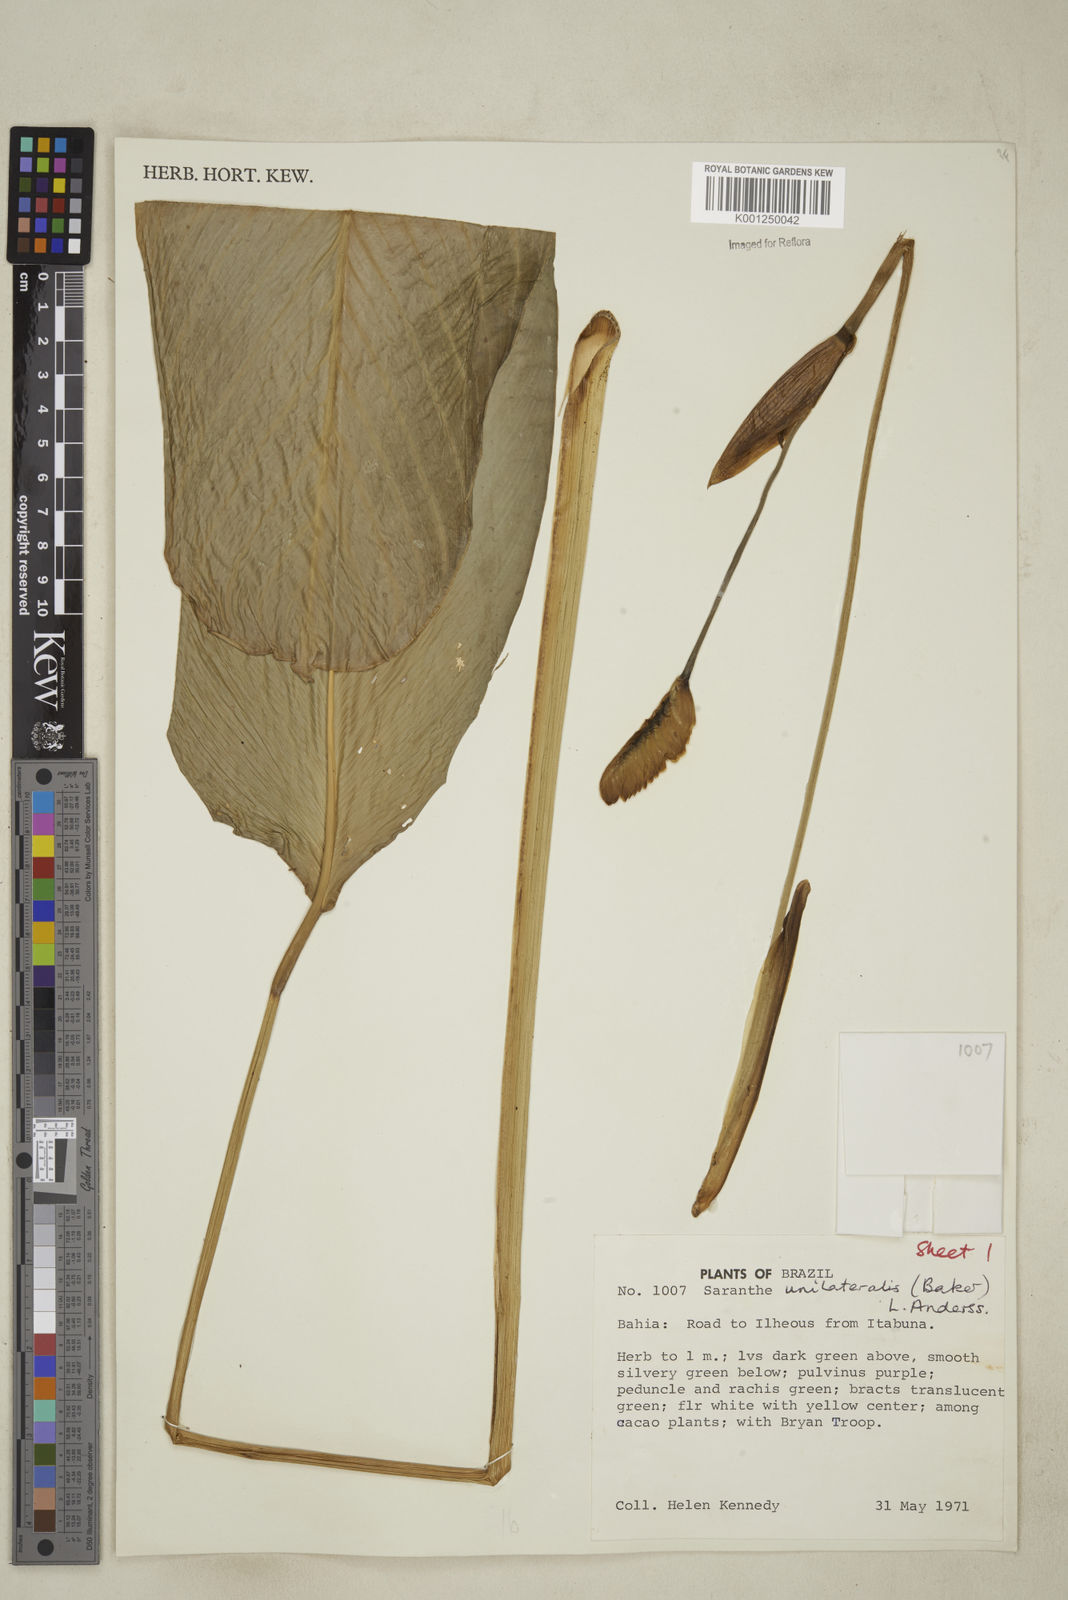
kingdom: Plantae
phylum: Tracheophyta
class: Liliopsida
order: Zingiberales
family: Marantaceae
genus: Saranthe
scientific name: Saranthe madagascariensis
